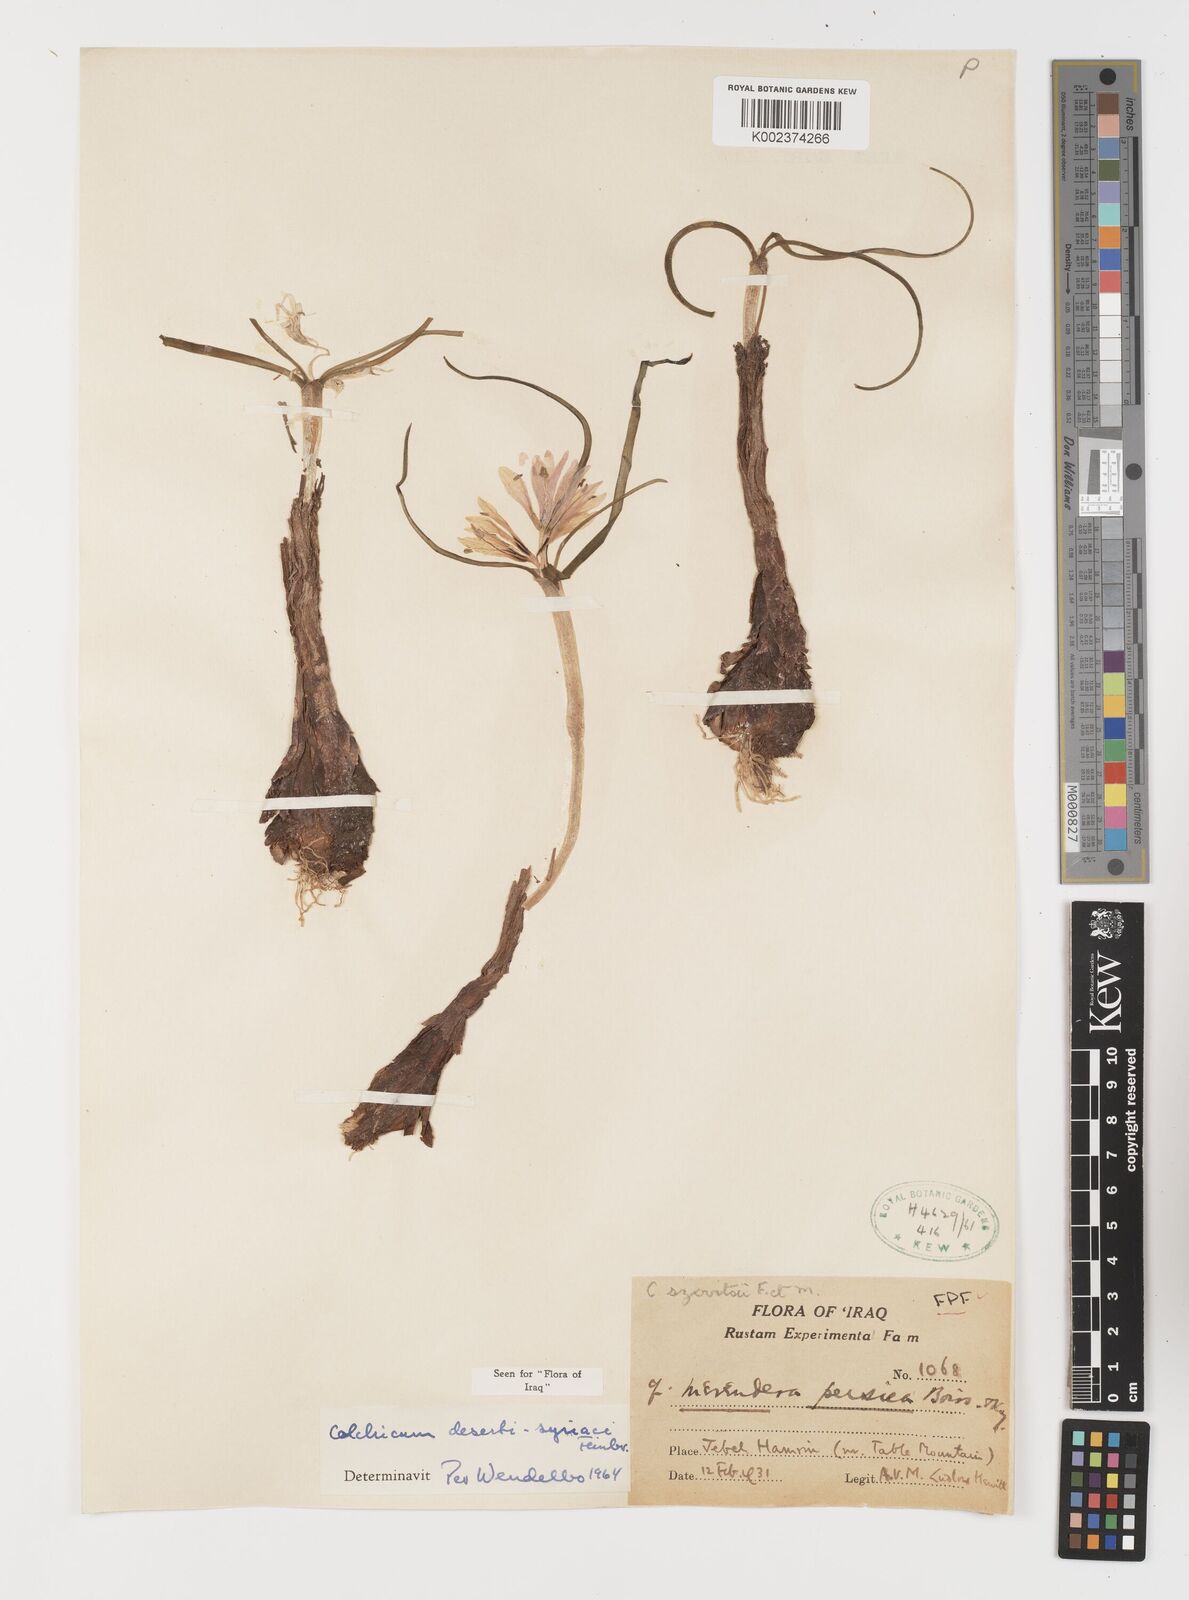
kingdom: Plantae
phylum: Tracheophyta
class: Liliopsida
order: Liliales
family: Colchicaceae
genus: Colchicum
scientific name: Colchicum schimperi
